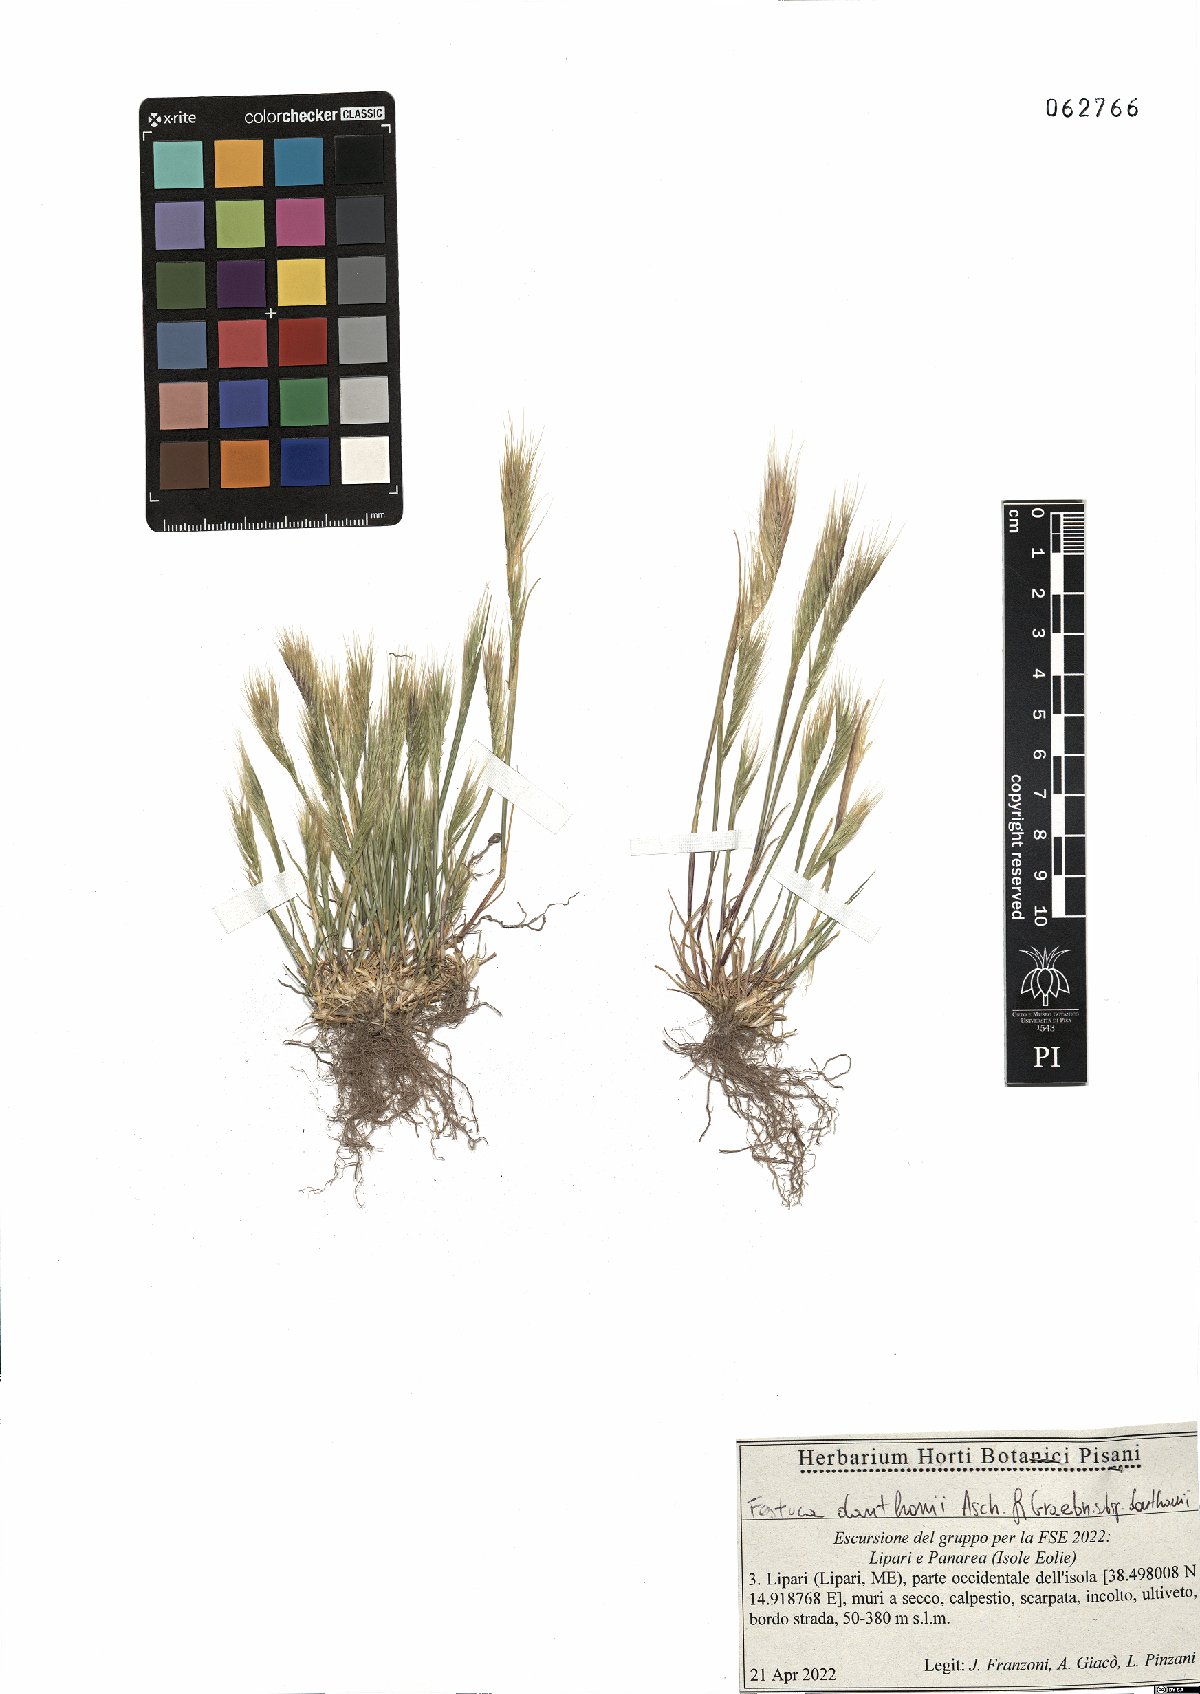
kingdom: Plantae
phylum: Tracheophyta
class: Liliopsida
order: Poales
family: Poaceae
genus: Festuca
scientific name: Festuca ambigua
